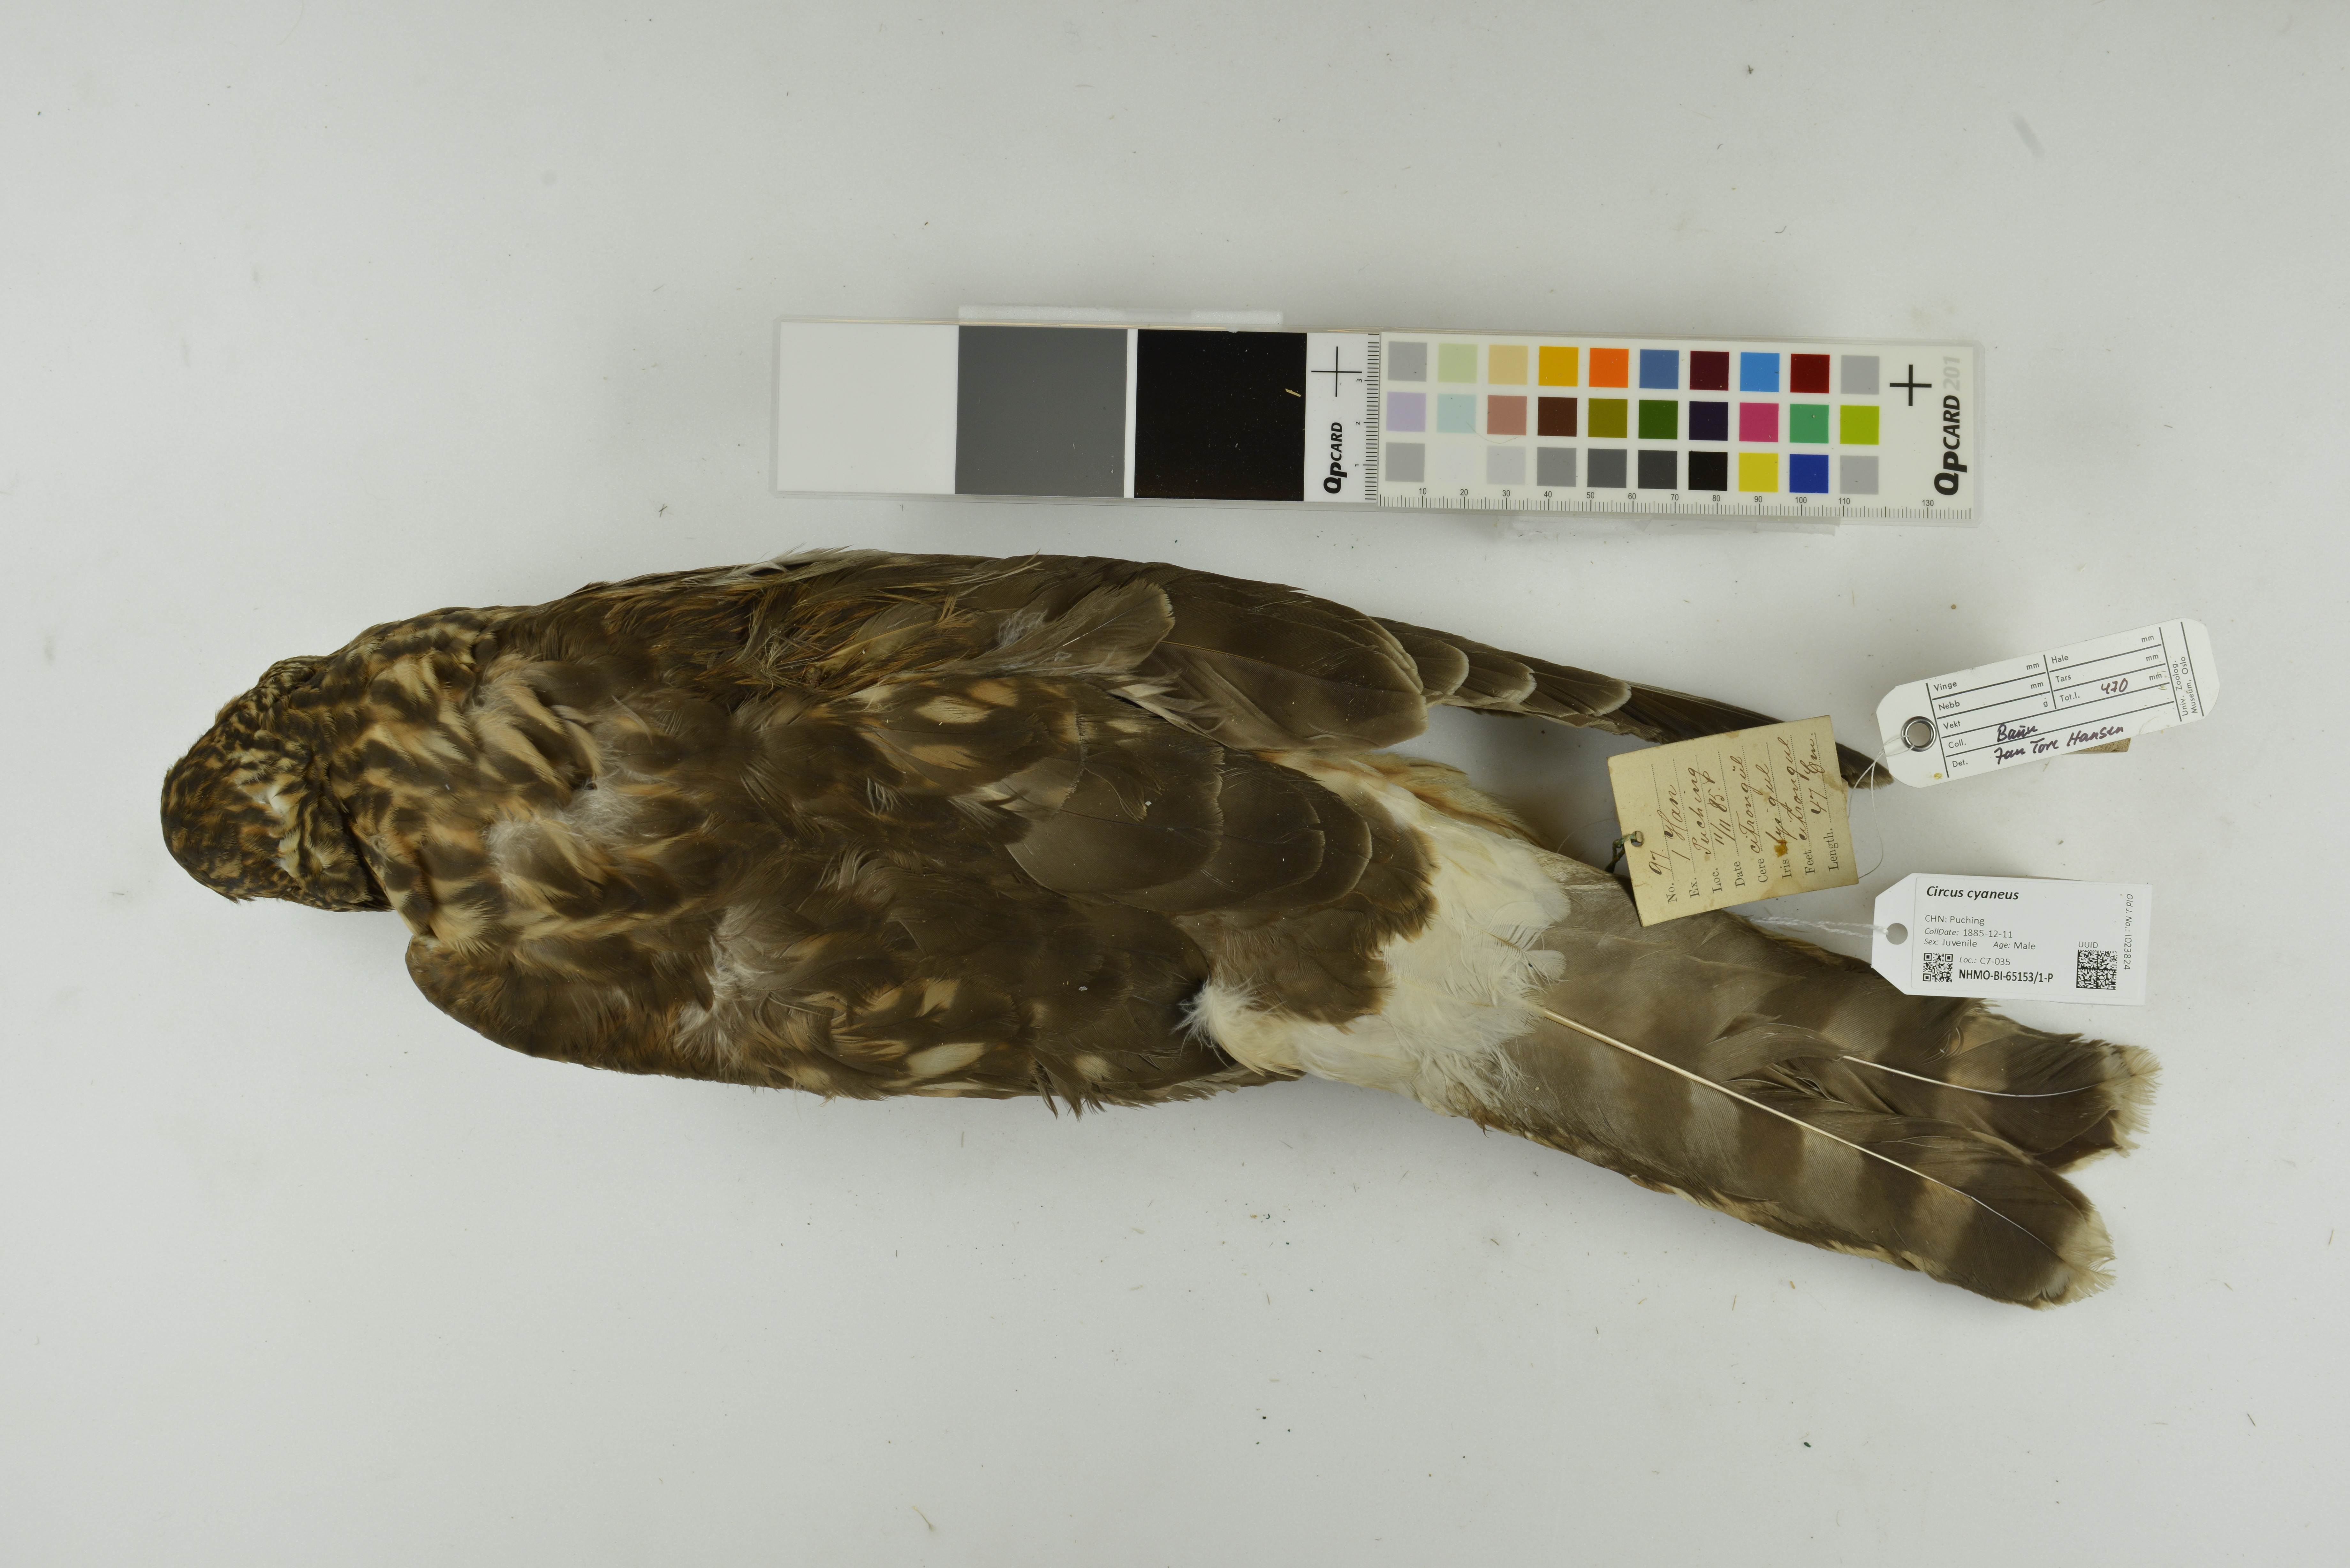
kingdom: Animalia
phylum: Chordata
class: Aves
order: Accipitriformes
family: Accipitridae
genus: Circus
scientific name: Circus cyaneus
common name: Hen harrier
